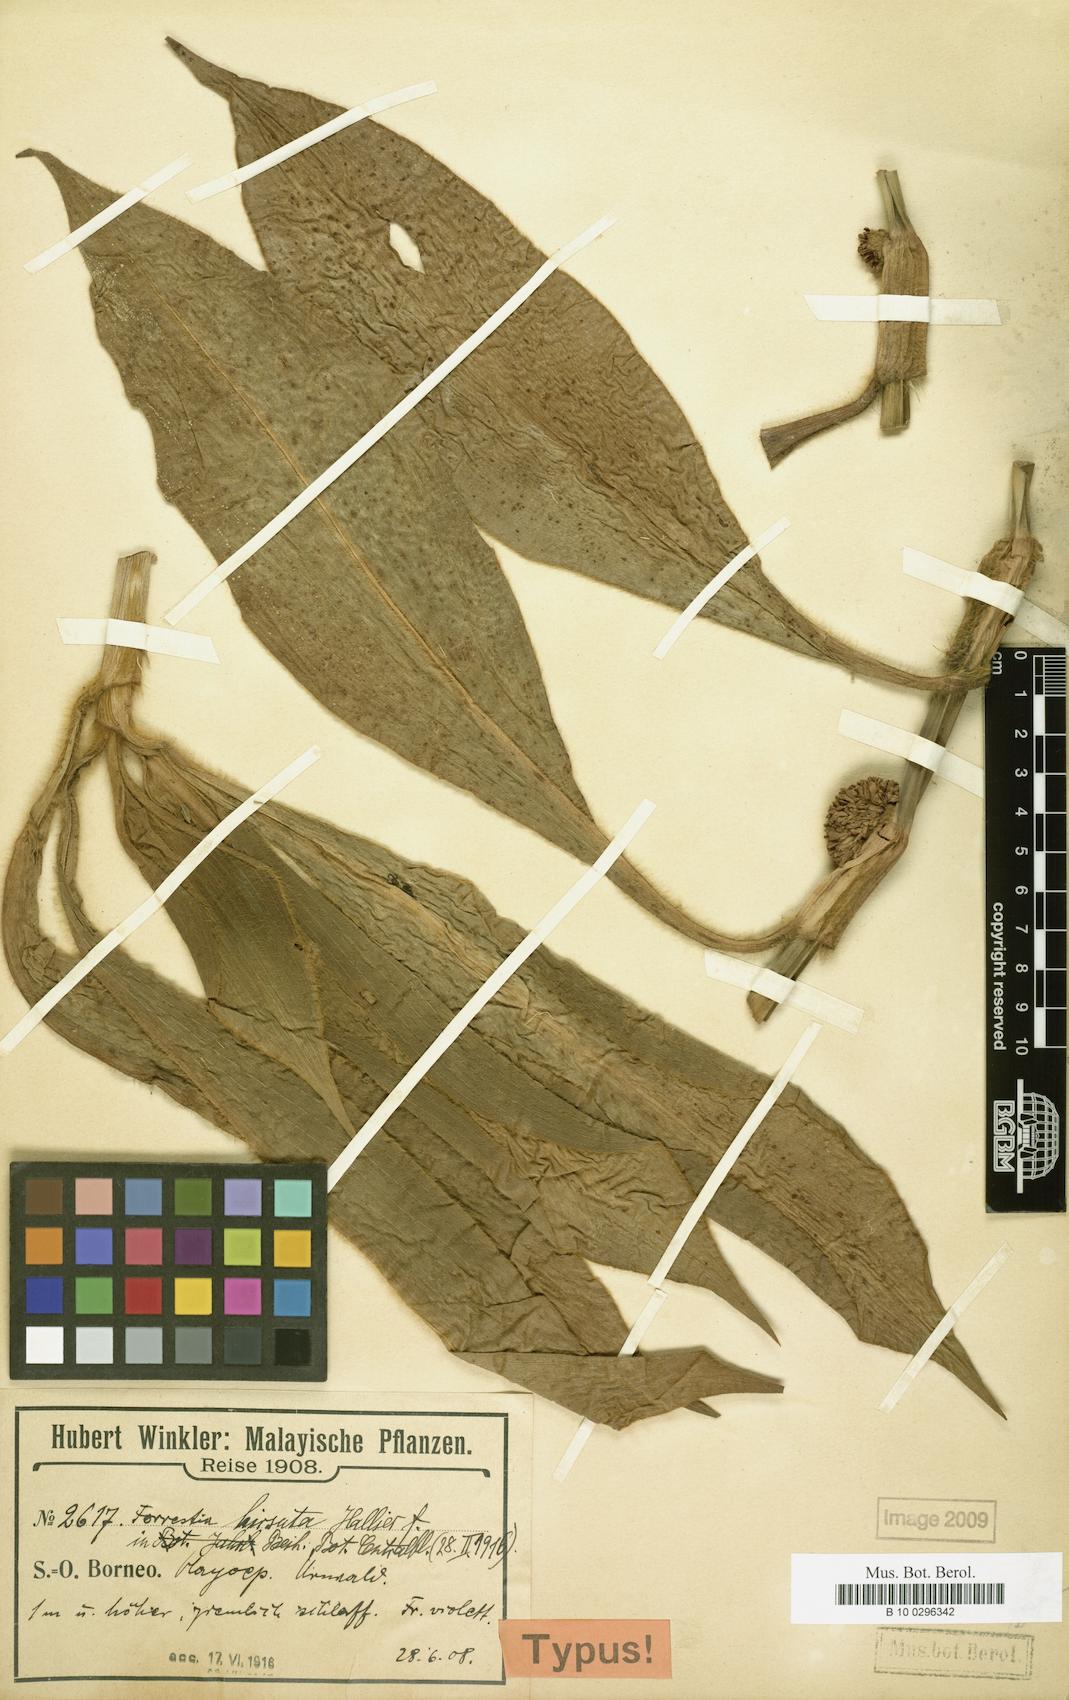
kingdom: Plantae
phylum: Tracheophyta
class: Liliopsida
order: Commelinales
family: Commelinaceae
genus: Amischotolype
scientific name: Amischotolype hirsuta
